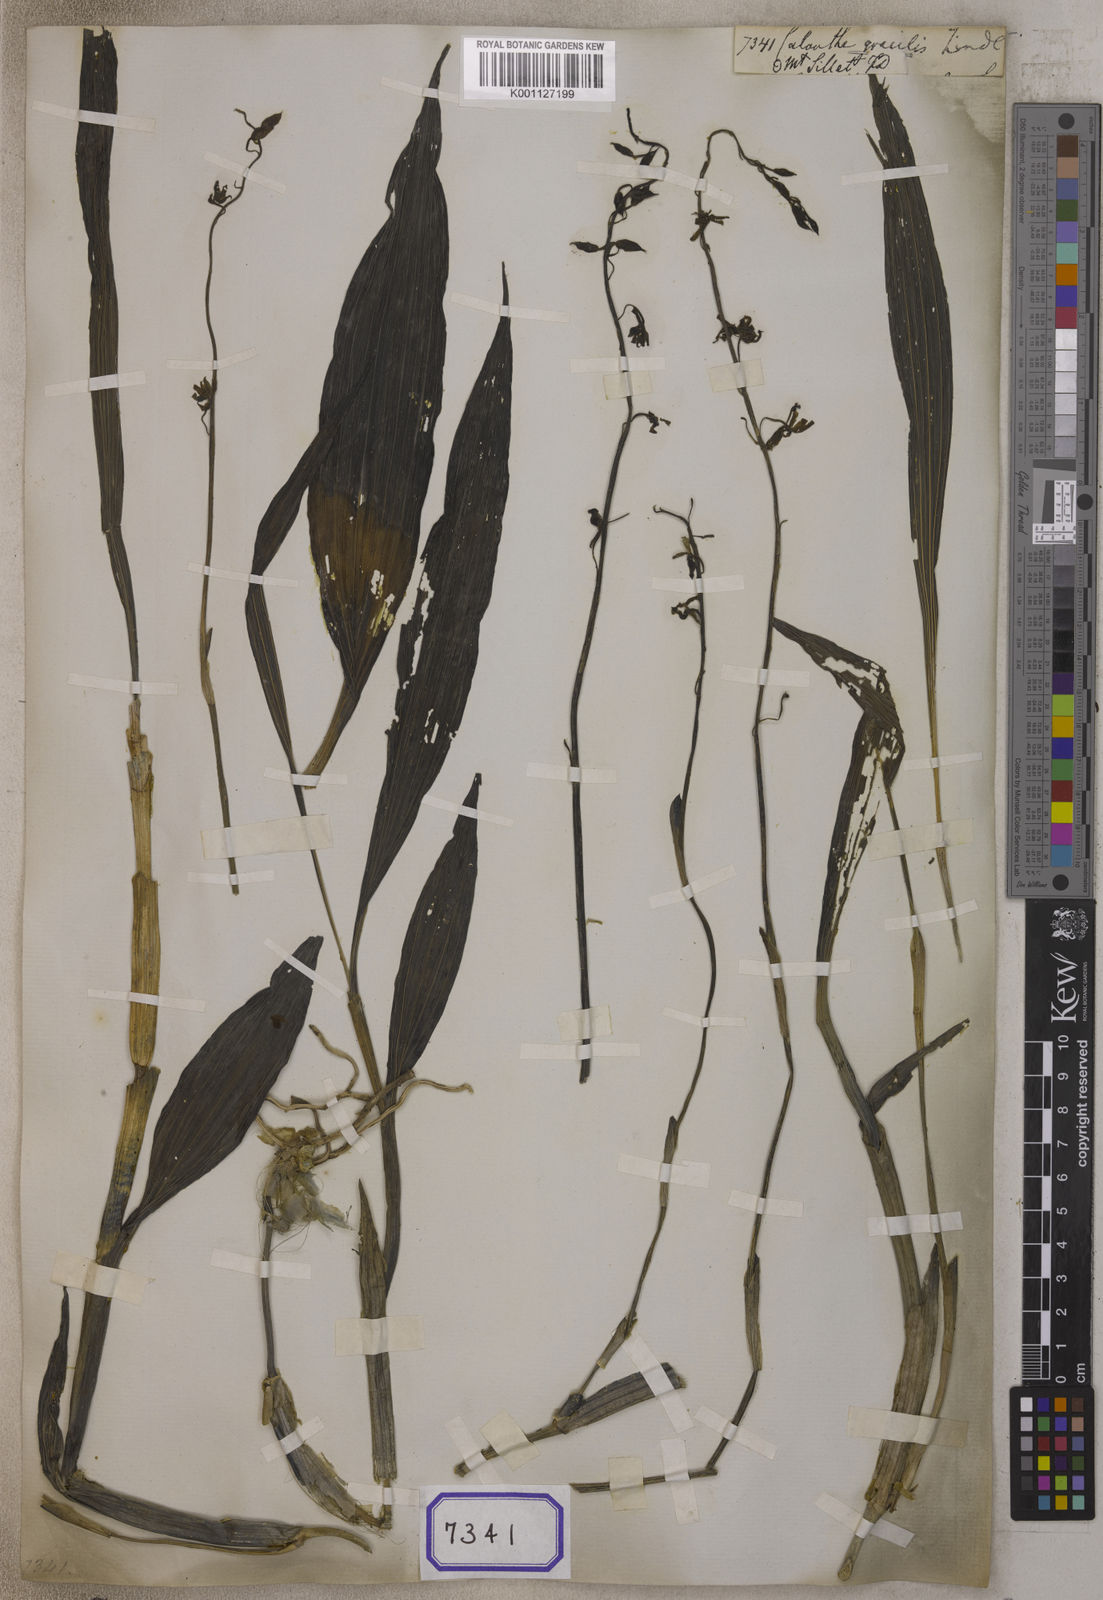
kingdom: Plantae
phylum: Tracheophyta
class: Liliopsida
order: Asparagales
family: Orchidaceae
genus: Calanthe
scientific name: Calanthe obcordata
